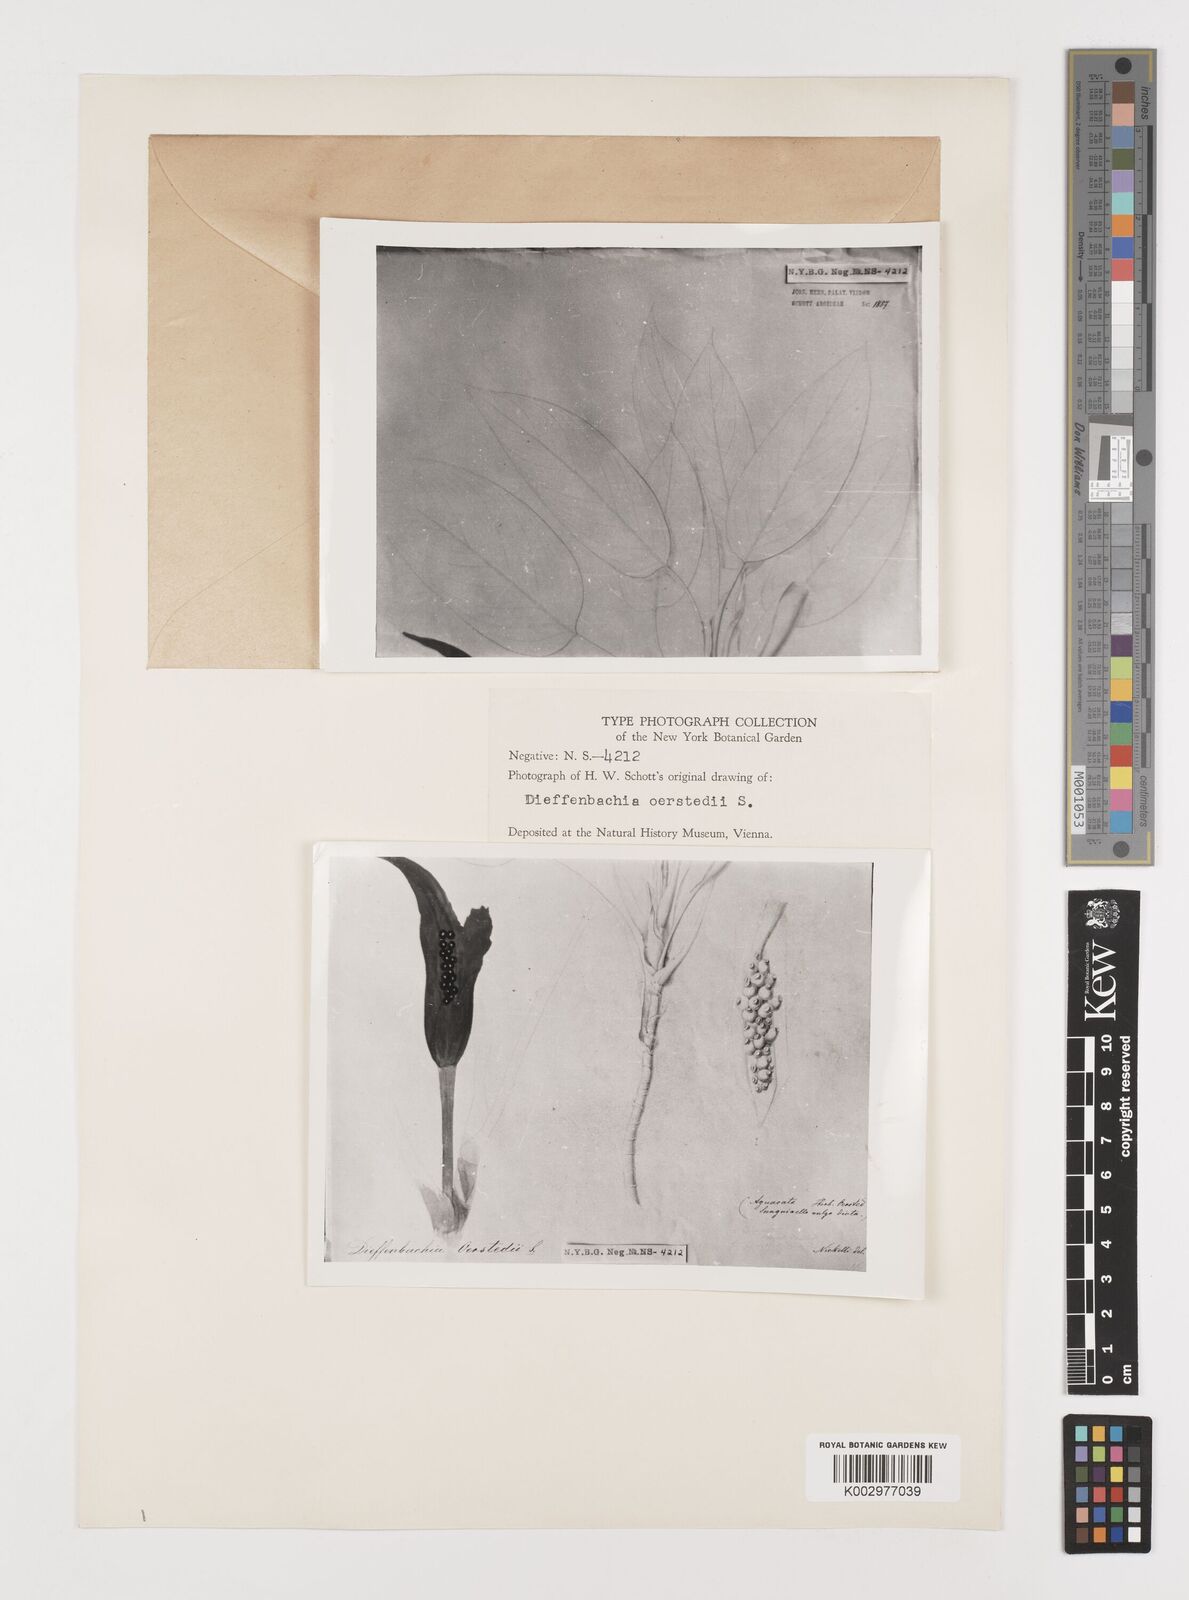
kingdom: Plantae
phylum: Tracheophyta
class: Liliopsida
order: Alismatales
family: Araceae
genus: Dieffenbachia
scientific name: Dieffenbachia oerstedii
